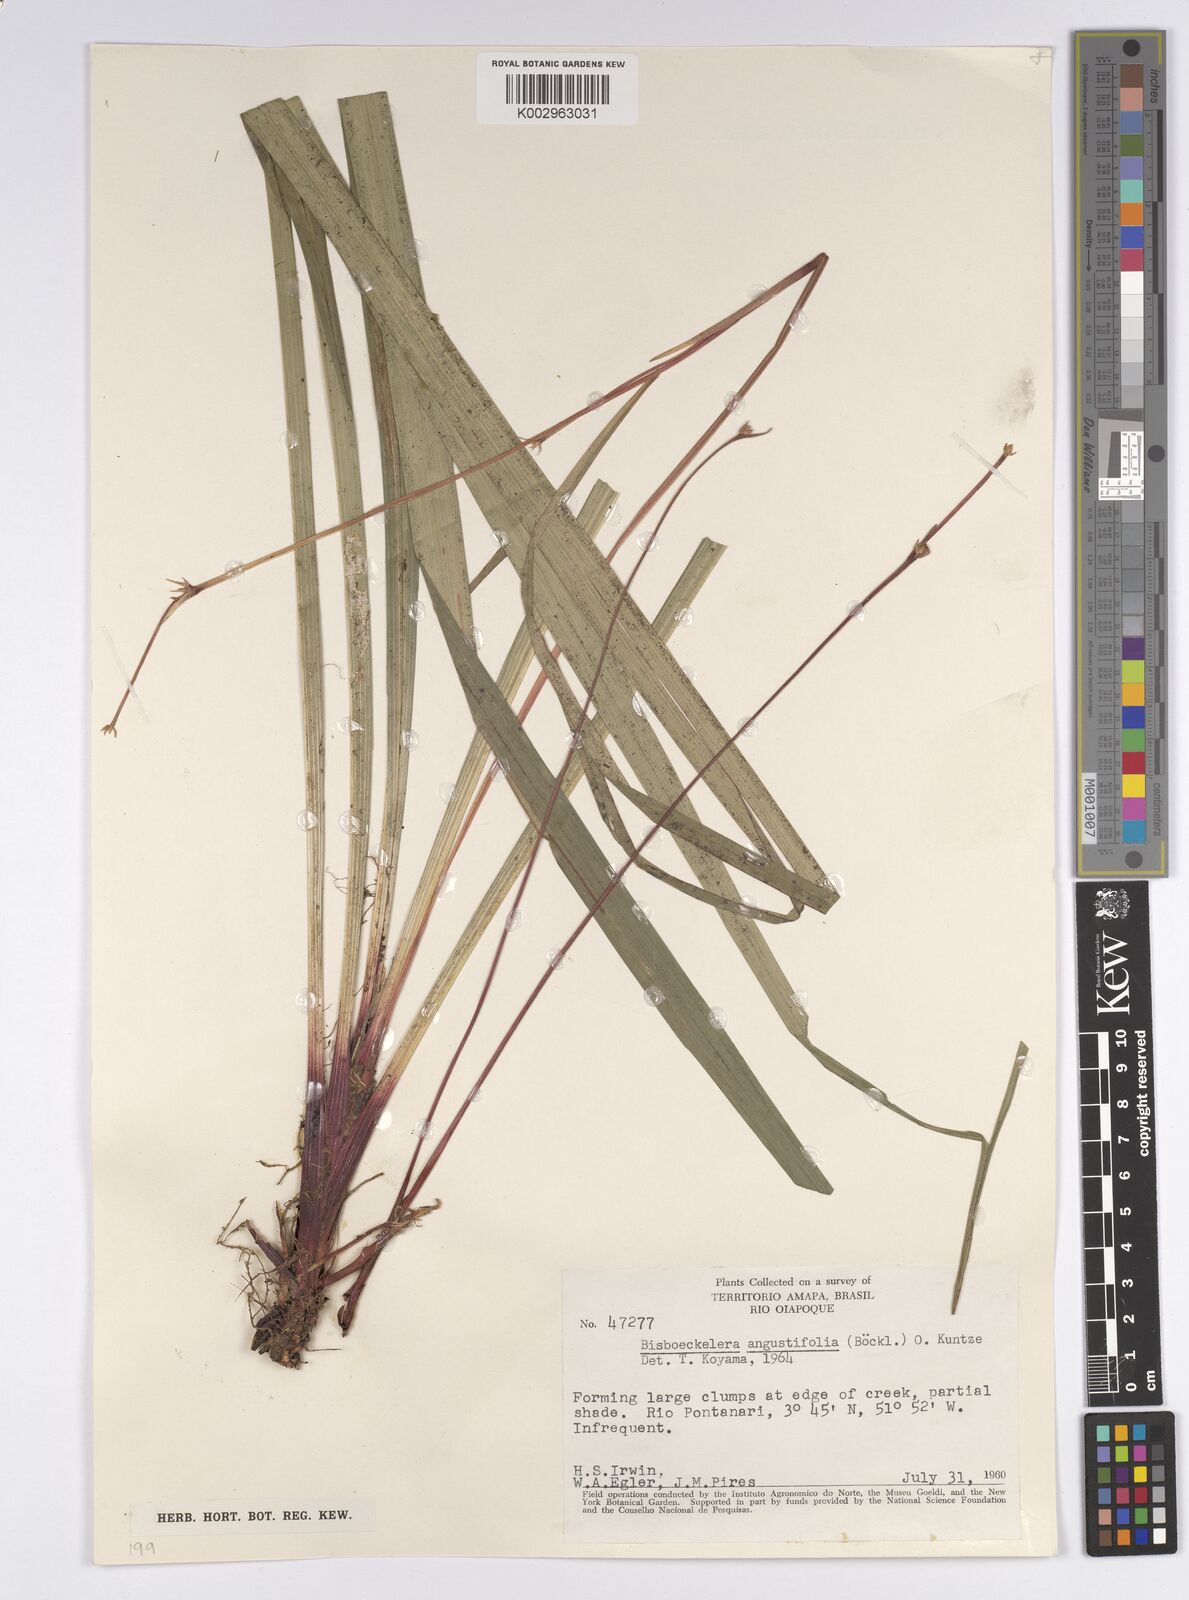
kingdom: Plantae
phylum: Tracheophyta
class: Liliopsida
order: Poales
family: Cyperaceae
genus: Bisboeckelera
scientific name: Bisboeckelera longifolia
